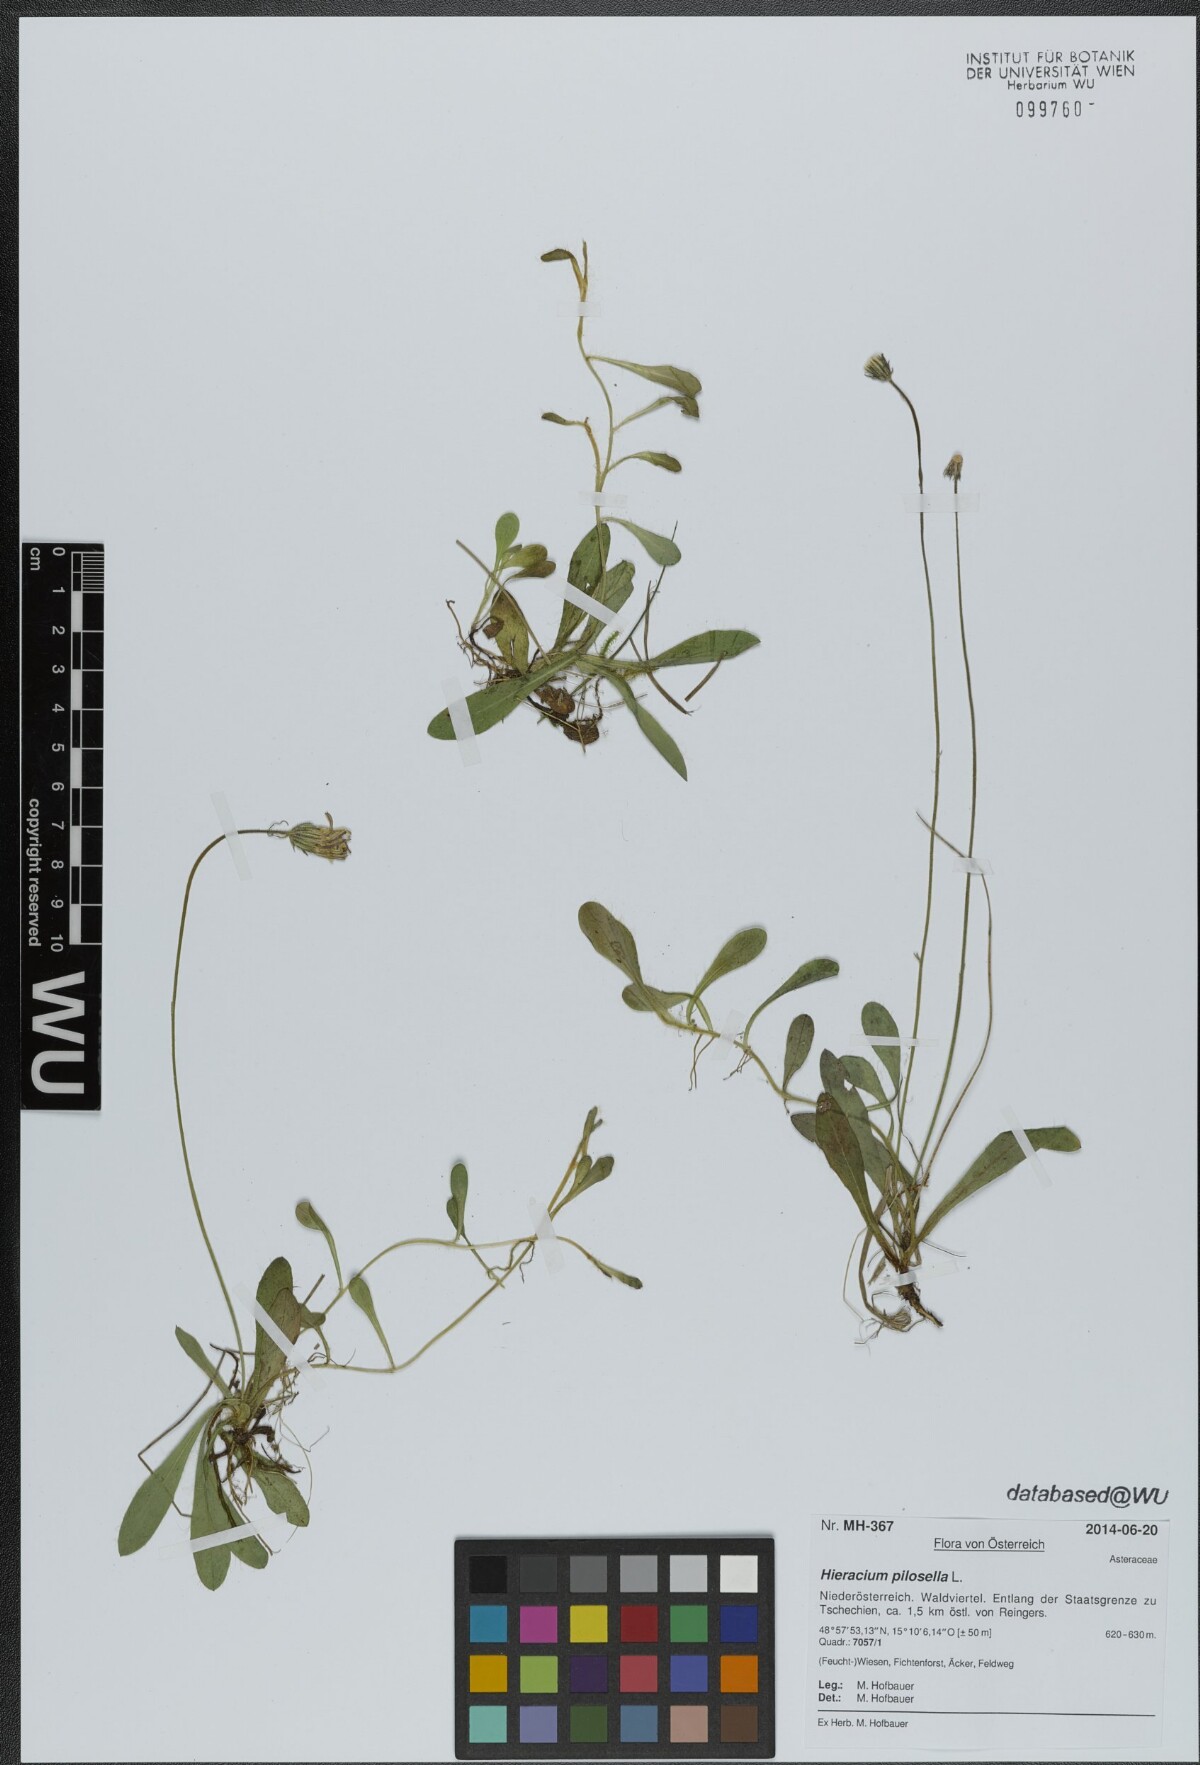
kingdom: Plantae
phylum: Tracheophyta
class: Magnoliopsida
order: Asterales
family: Asteraceae
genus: Pilosella
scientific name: Pilosella officinarum
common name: Mouse-ear hawkweed
